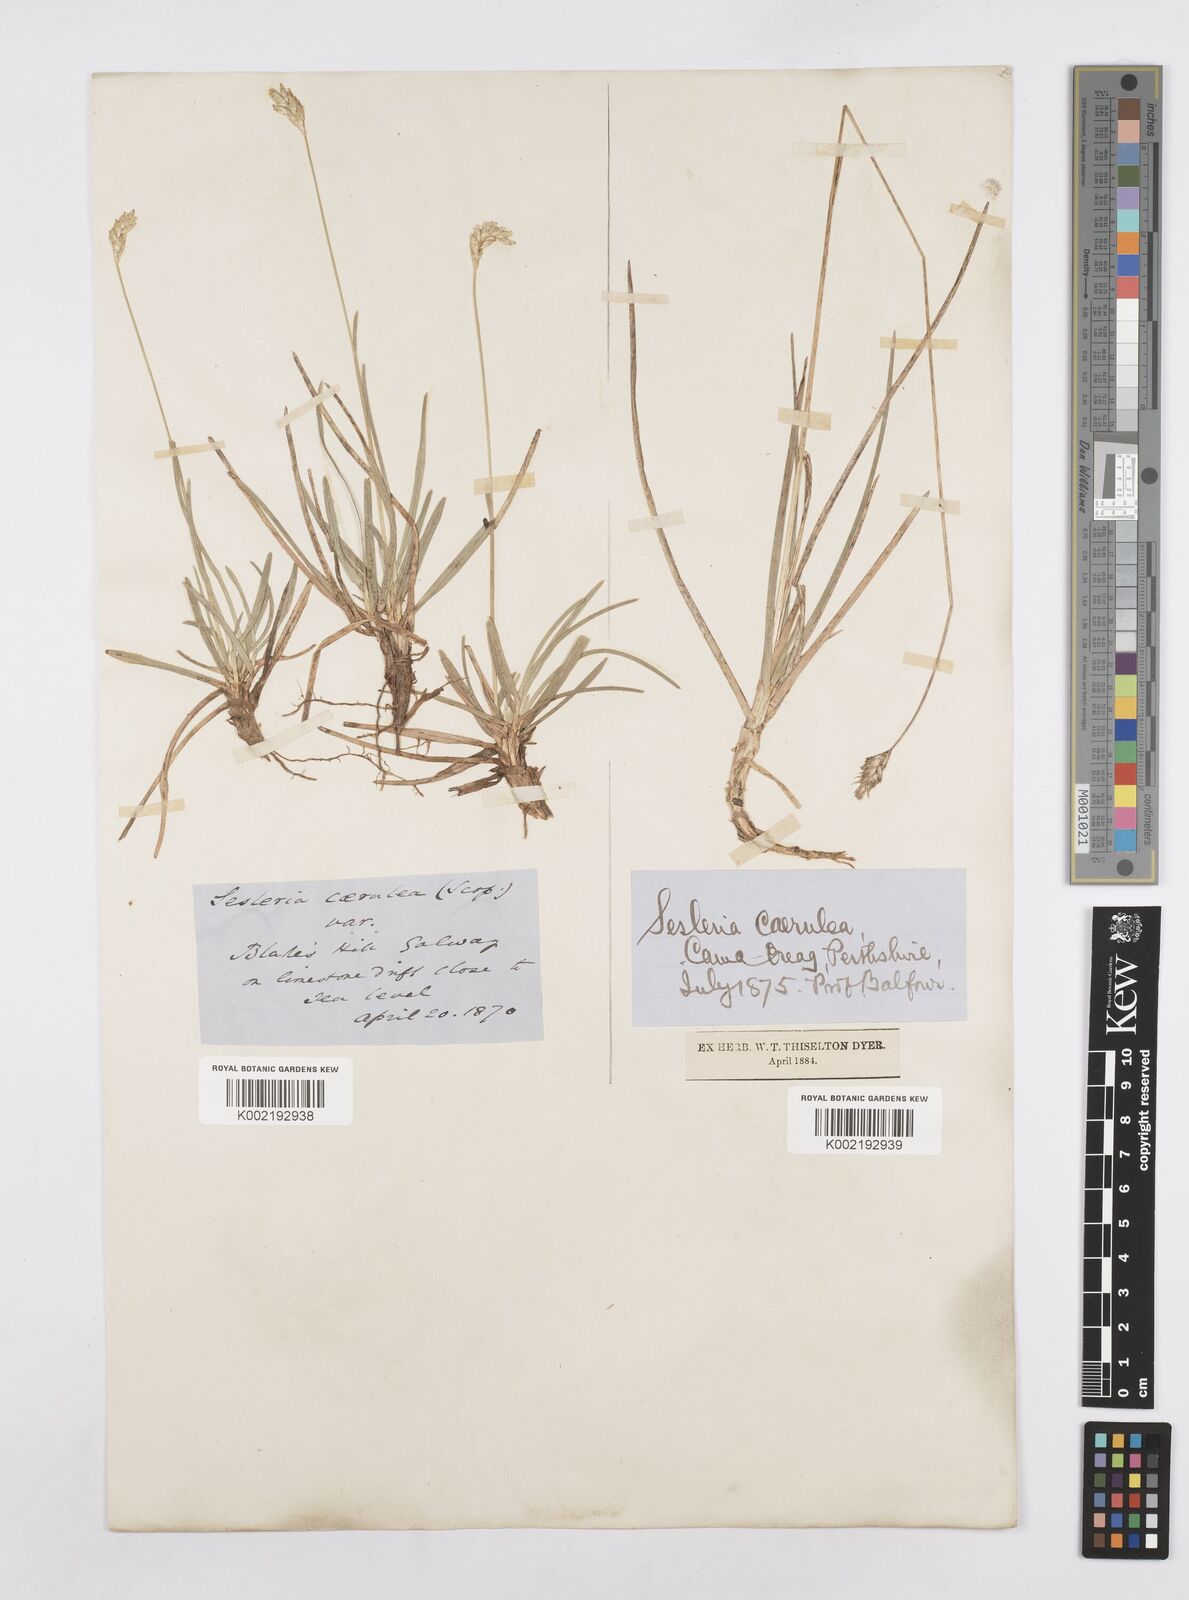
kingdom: Plantae
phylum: Tracheophyta
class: Liliopsida
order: Poales
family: Poaceae
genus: Sesleria
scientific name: Sesleria caerulea
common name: Blue moor-grass
